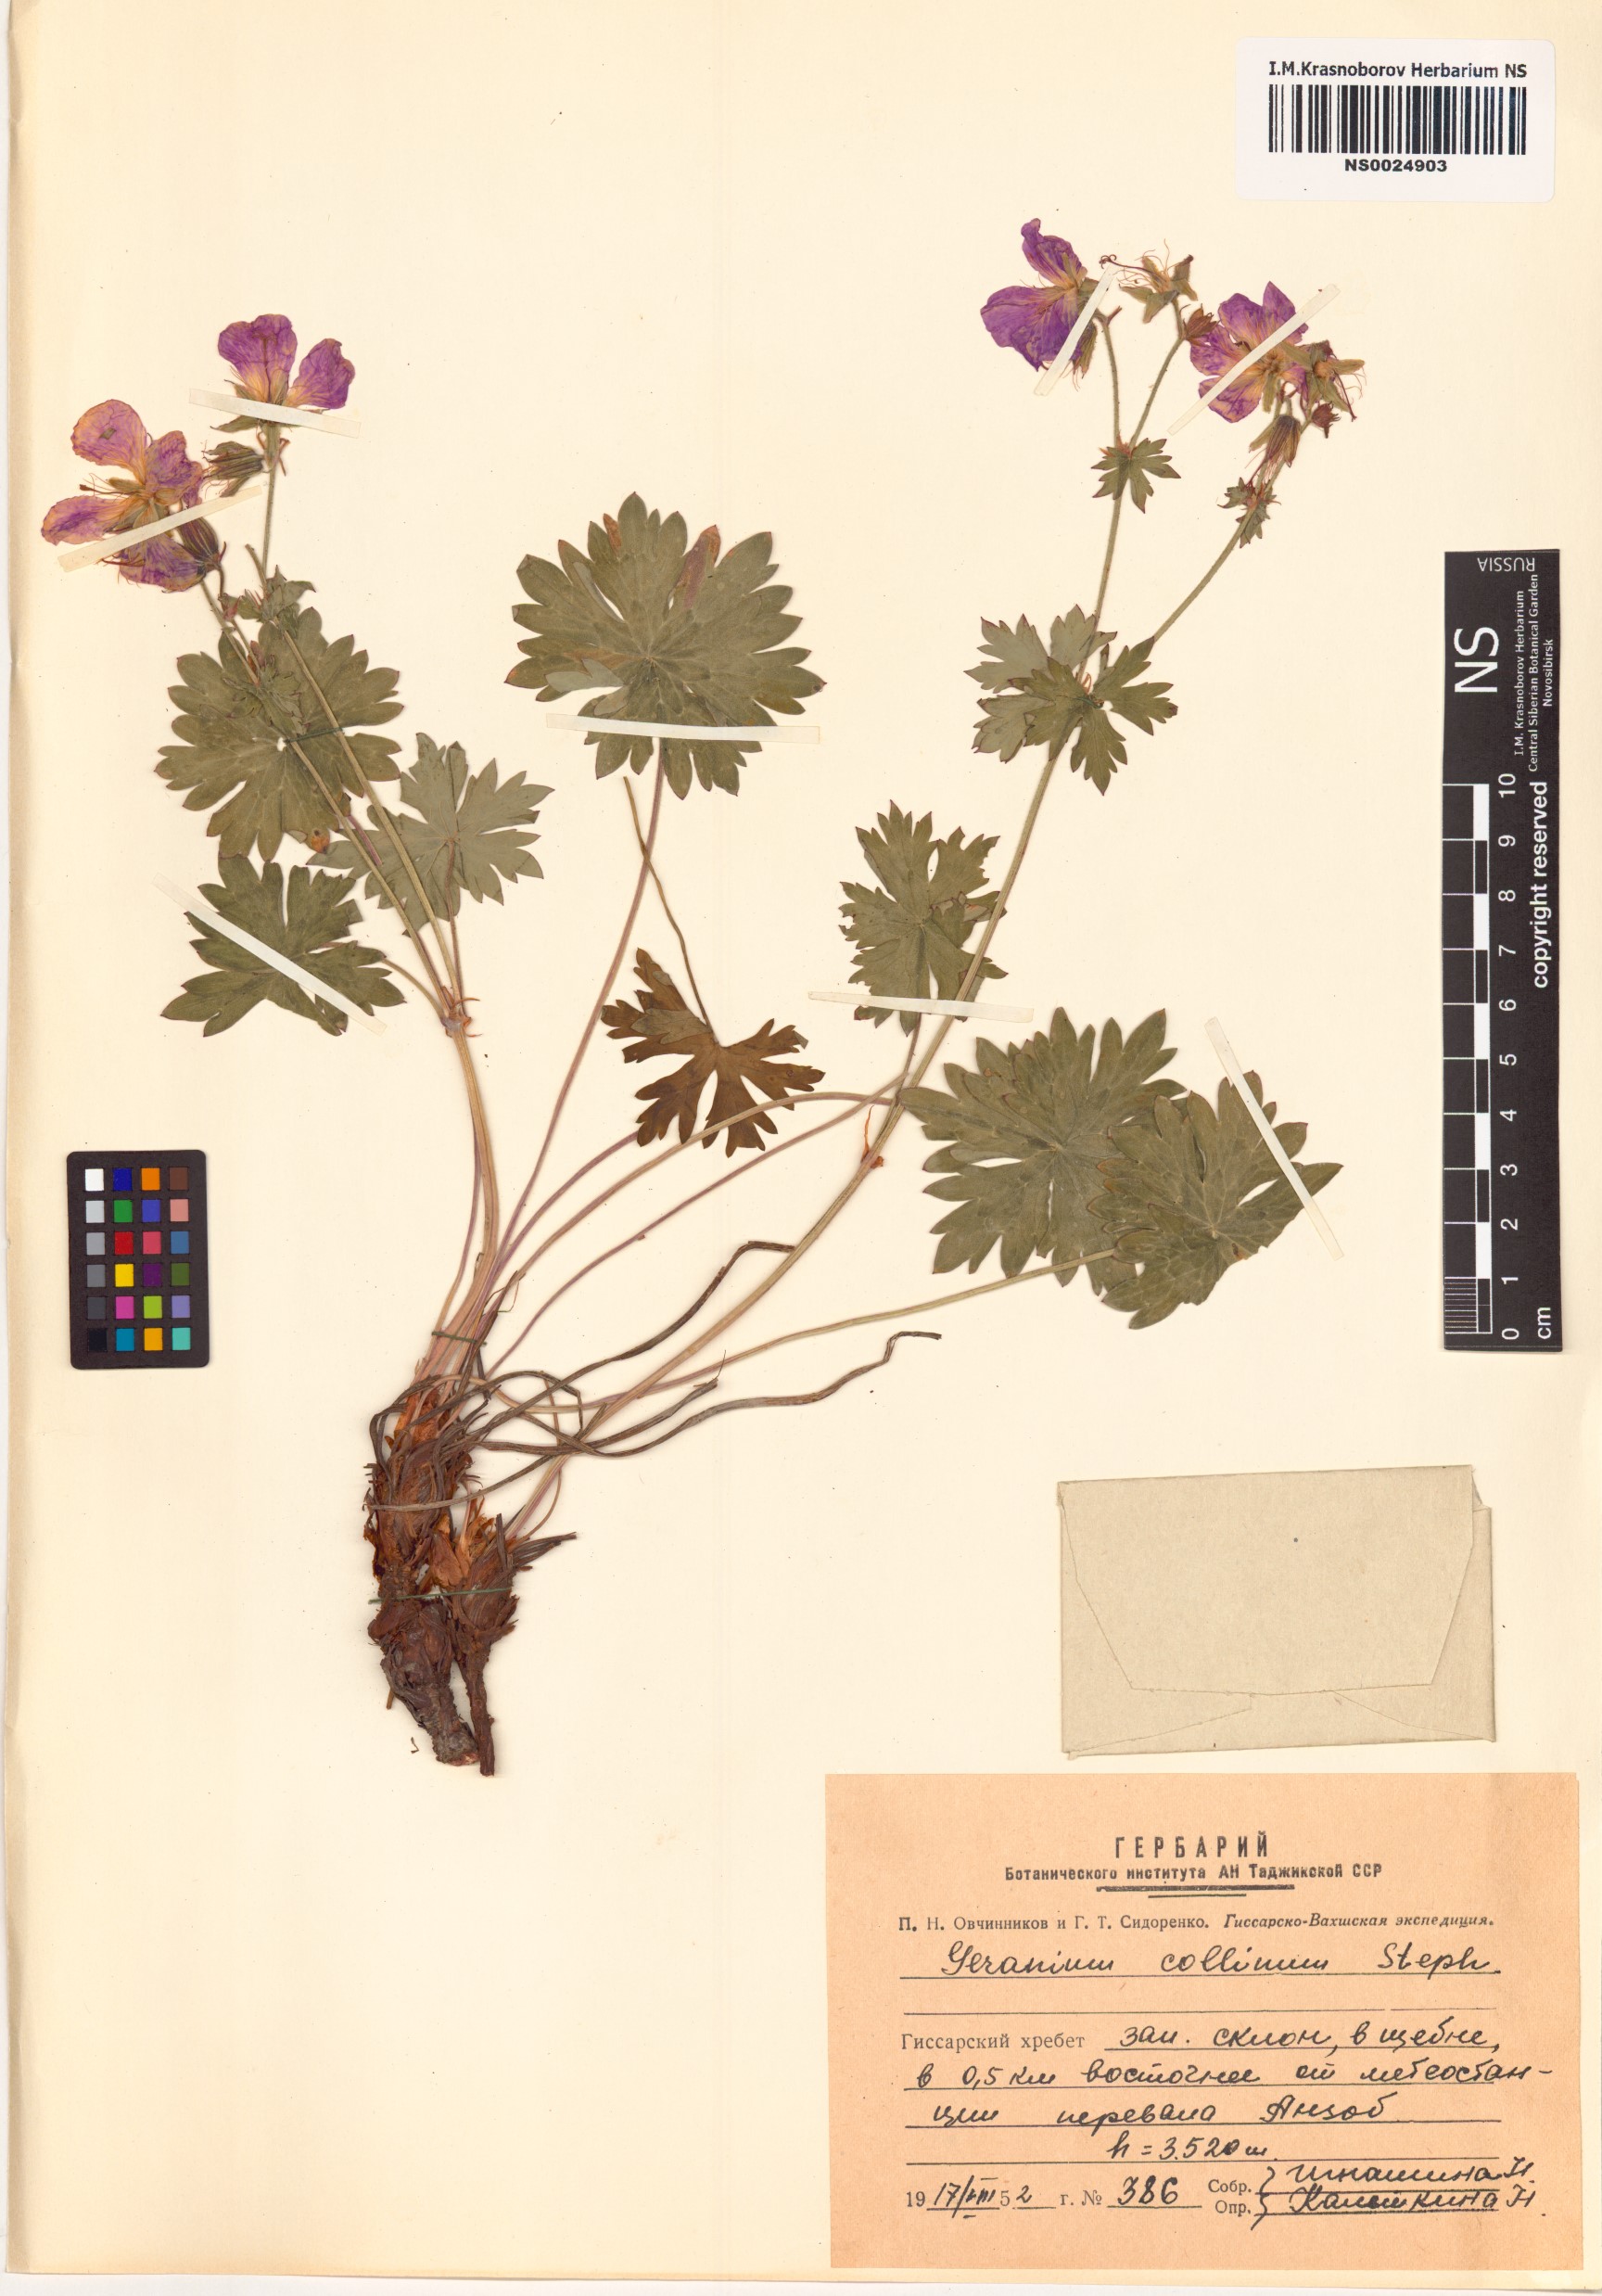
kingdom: Plantae
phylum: Tracheophyta
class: Magnoliopsida
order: Geraniales
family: Geraniaceae
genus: Geranium
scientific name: Geranium collinum
